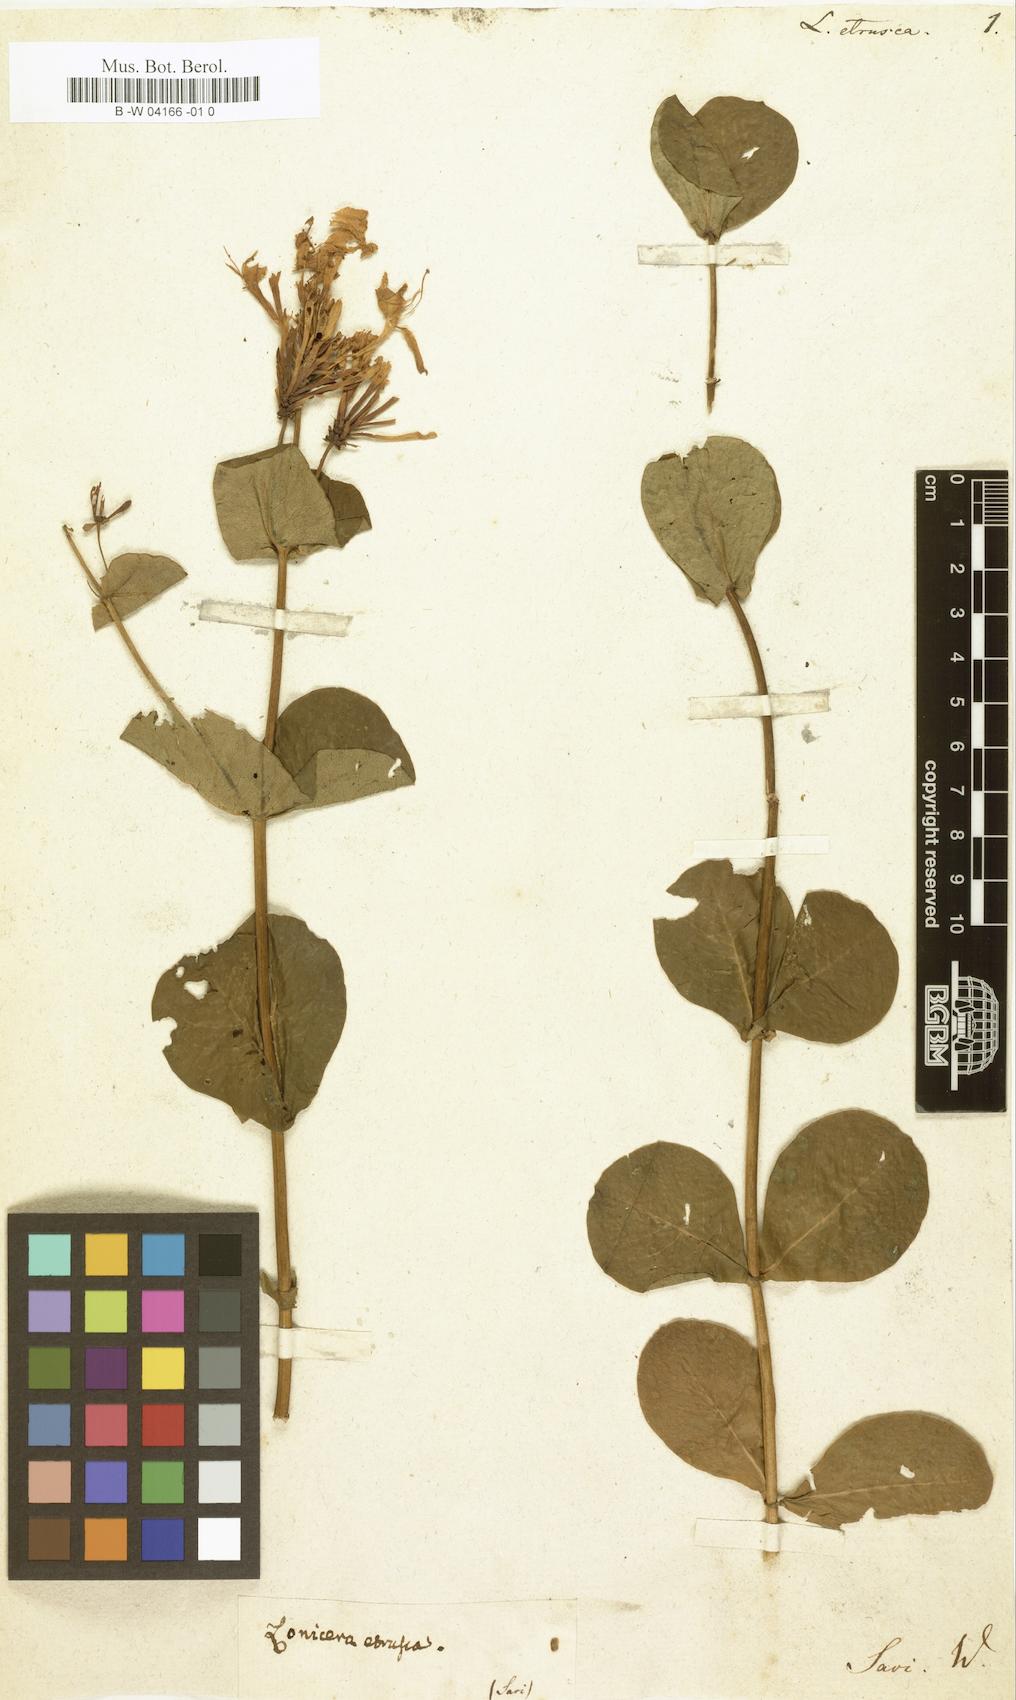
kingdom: Plantae
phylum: Tracheophyta
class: Magnoliopsida
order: Dipsacales
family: Caprifoliaceae
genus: Lonicera
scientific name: Lonicera etrusca
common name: Etruscan honeysuckle
